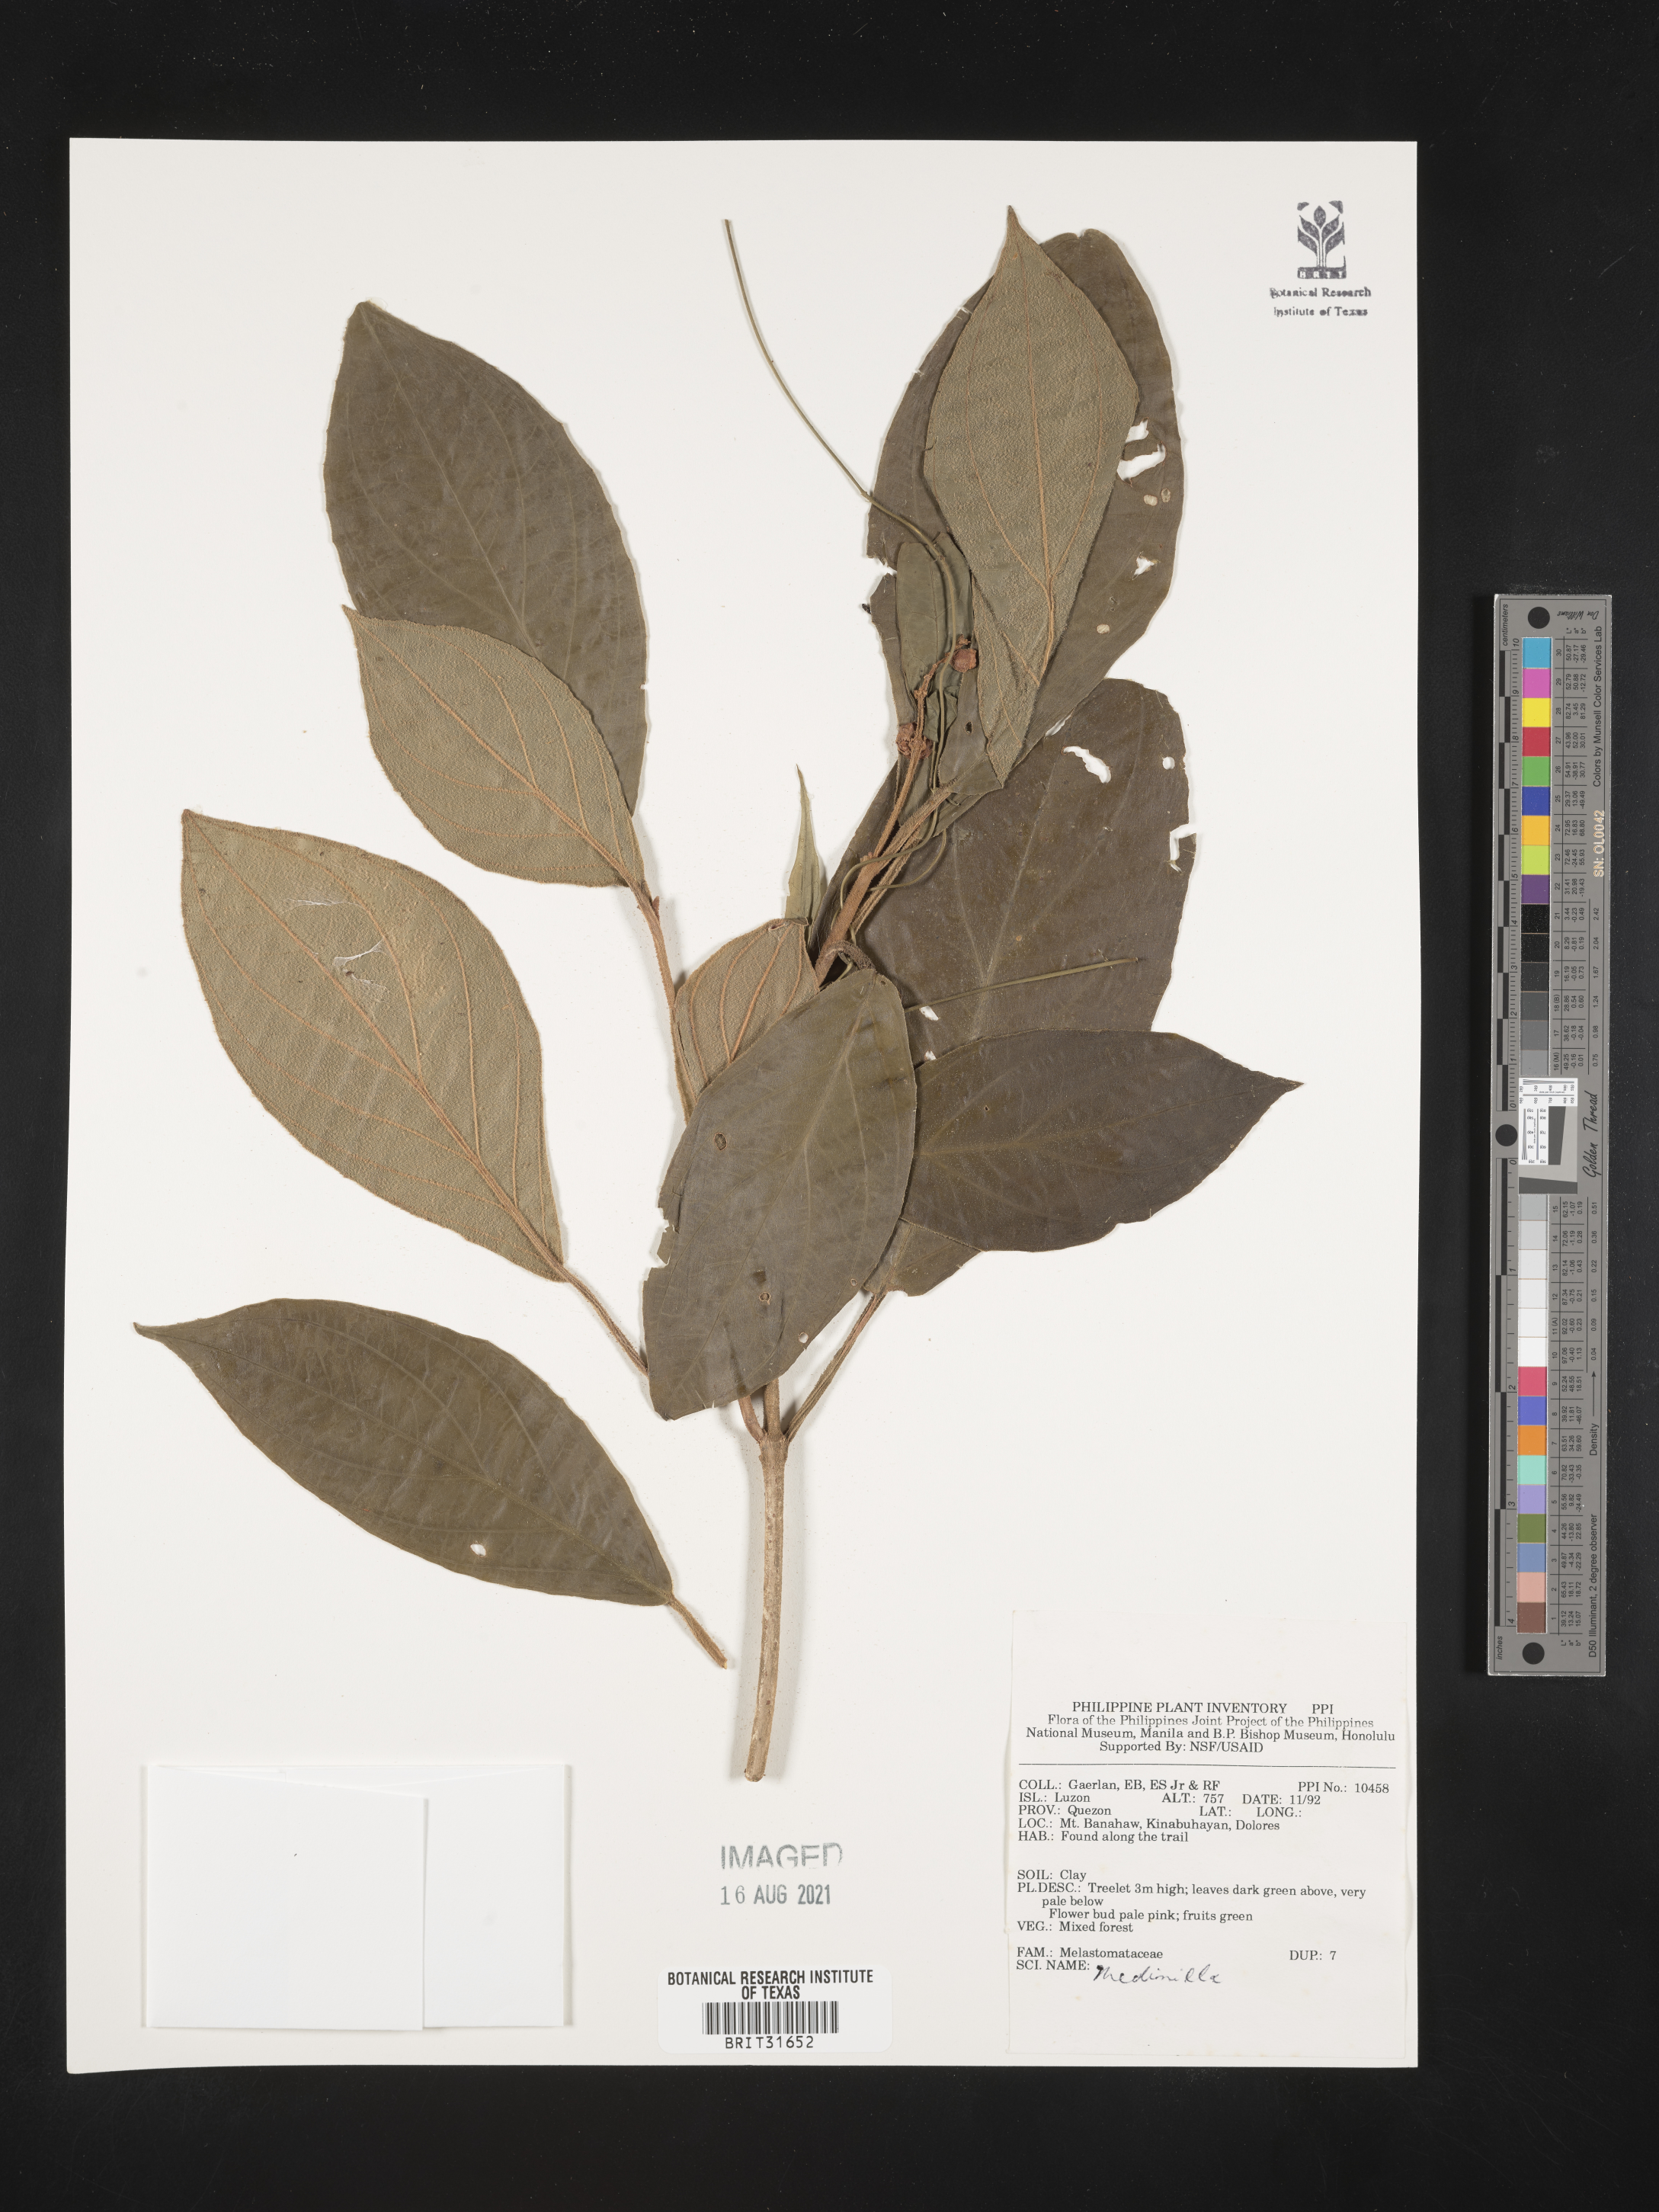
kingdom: Plantae
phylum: Tracheophyta
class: Magnoliopsida
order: Myrtales
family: Melastomataceae
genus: Medinilla
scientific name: Medinilla
